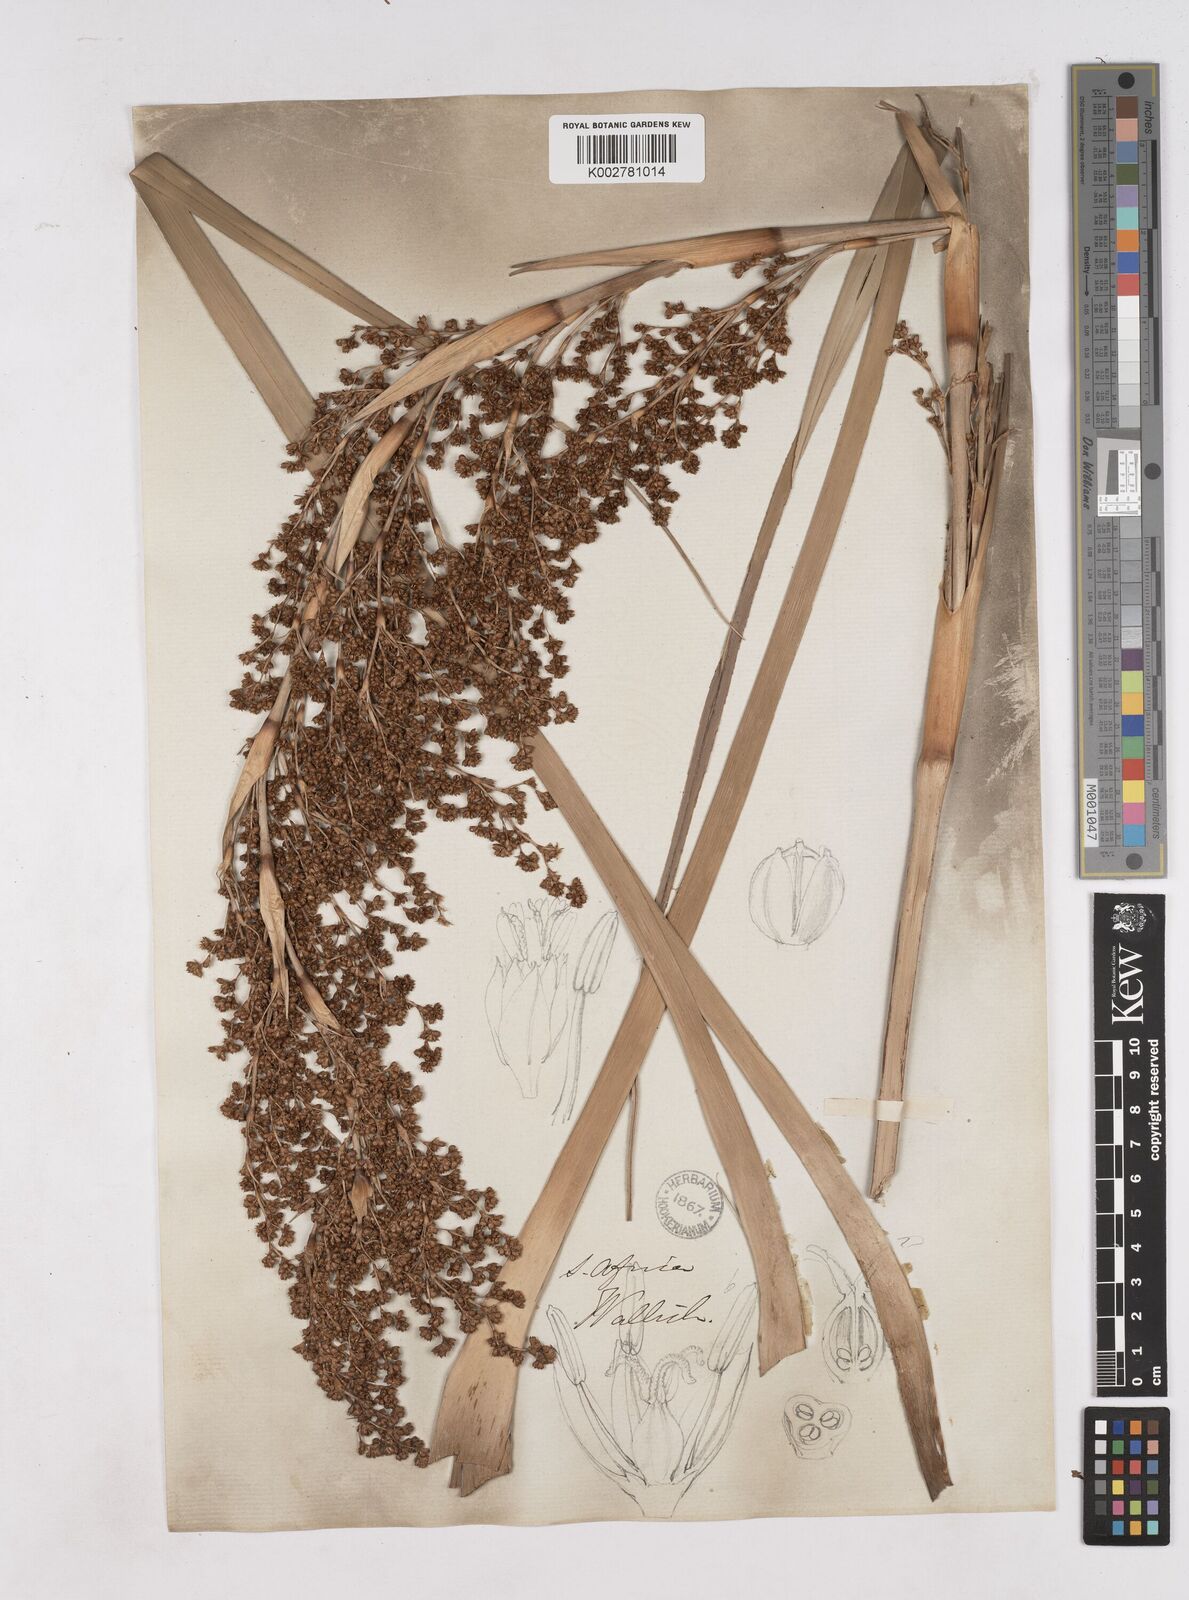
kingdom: Plantae
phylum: Tracheophyta
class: Liliopsida
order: Poales
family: Thurniaceae
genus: Prionium
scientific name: Prionium serratum
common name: Palmiet
